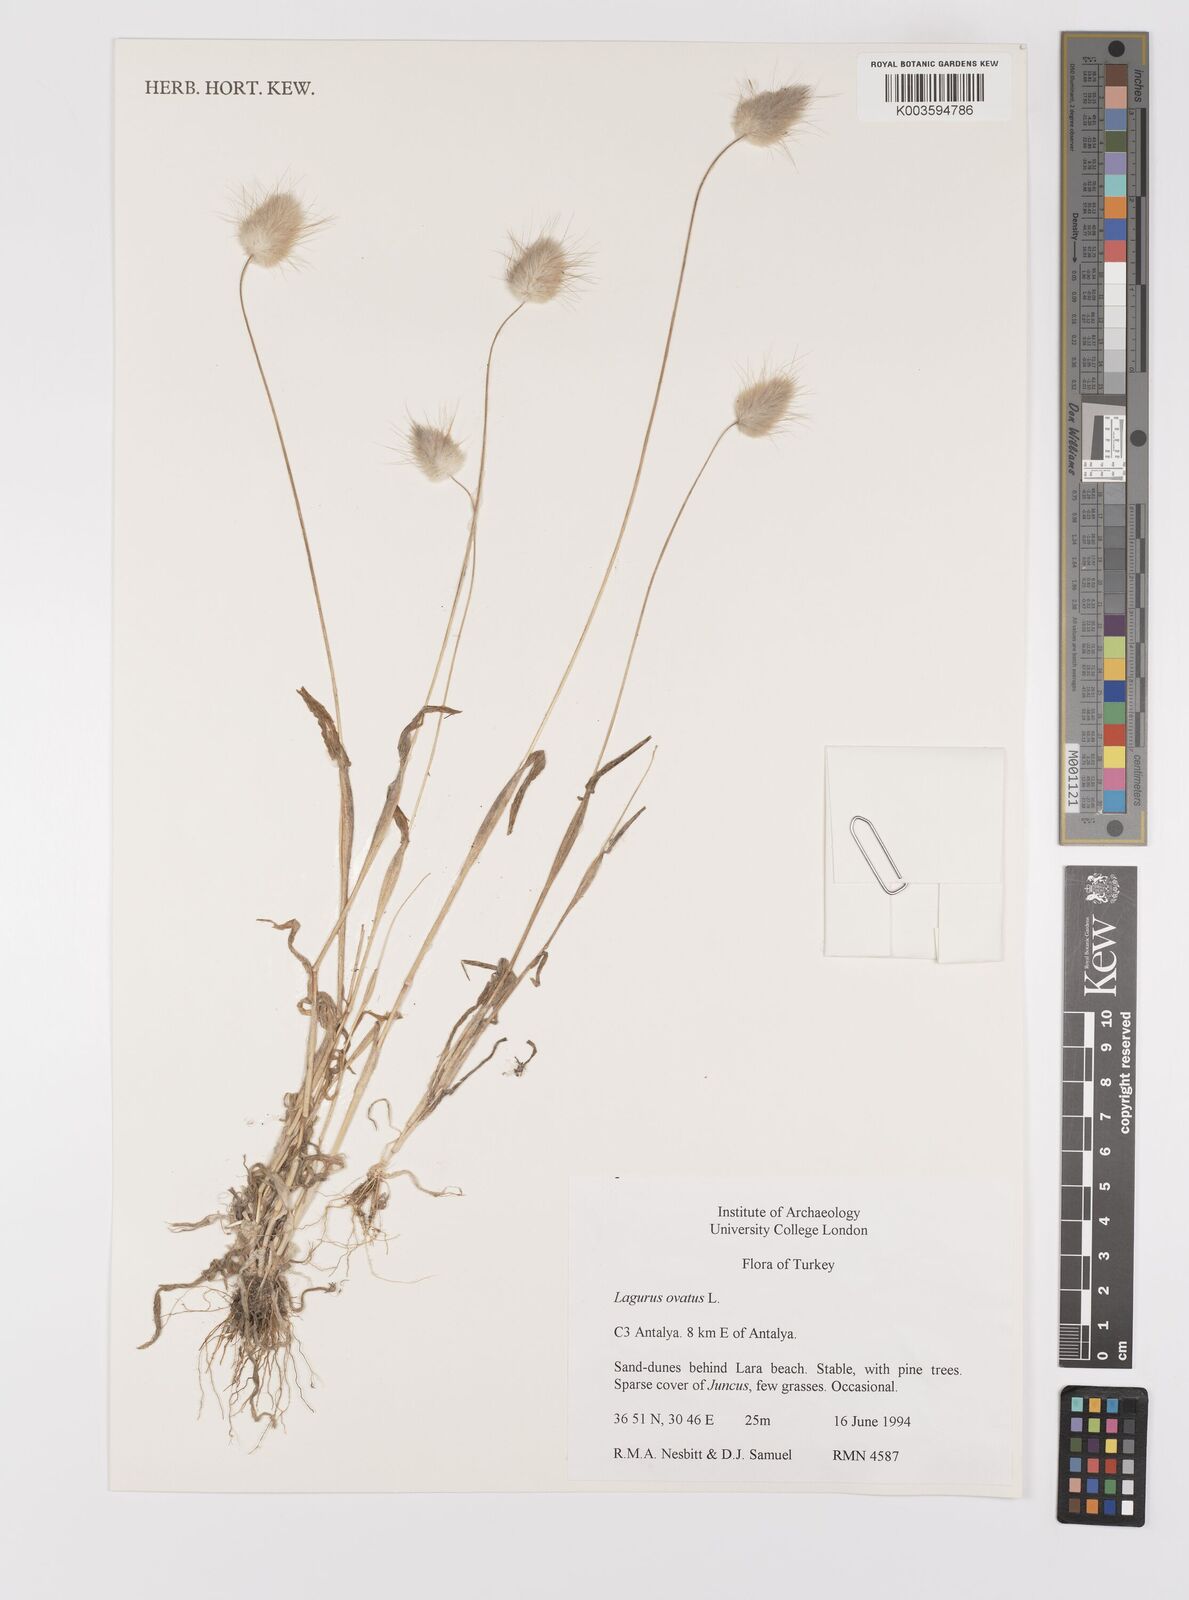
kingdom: Plantae
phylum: Tracheophyta
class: Liliopsida
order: Poales
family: Poaceae
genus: Lagurus
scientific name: Lagurus ovatus
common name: Hare's-tail
